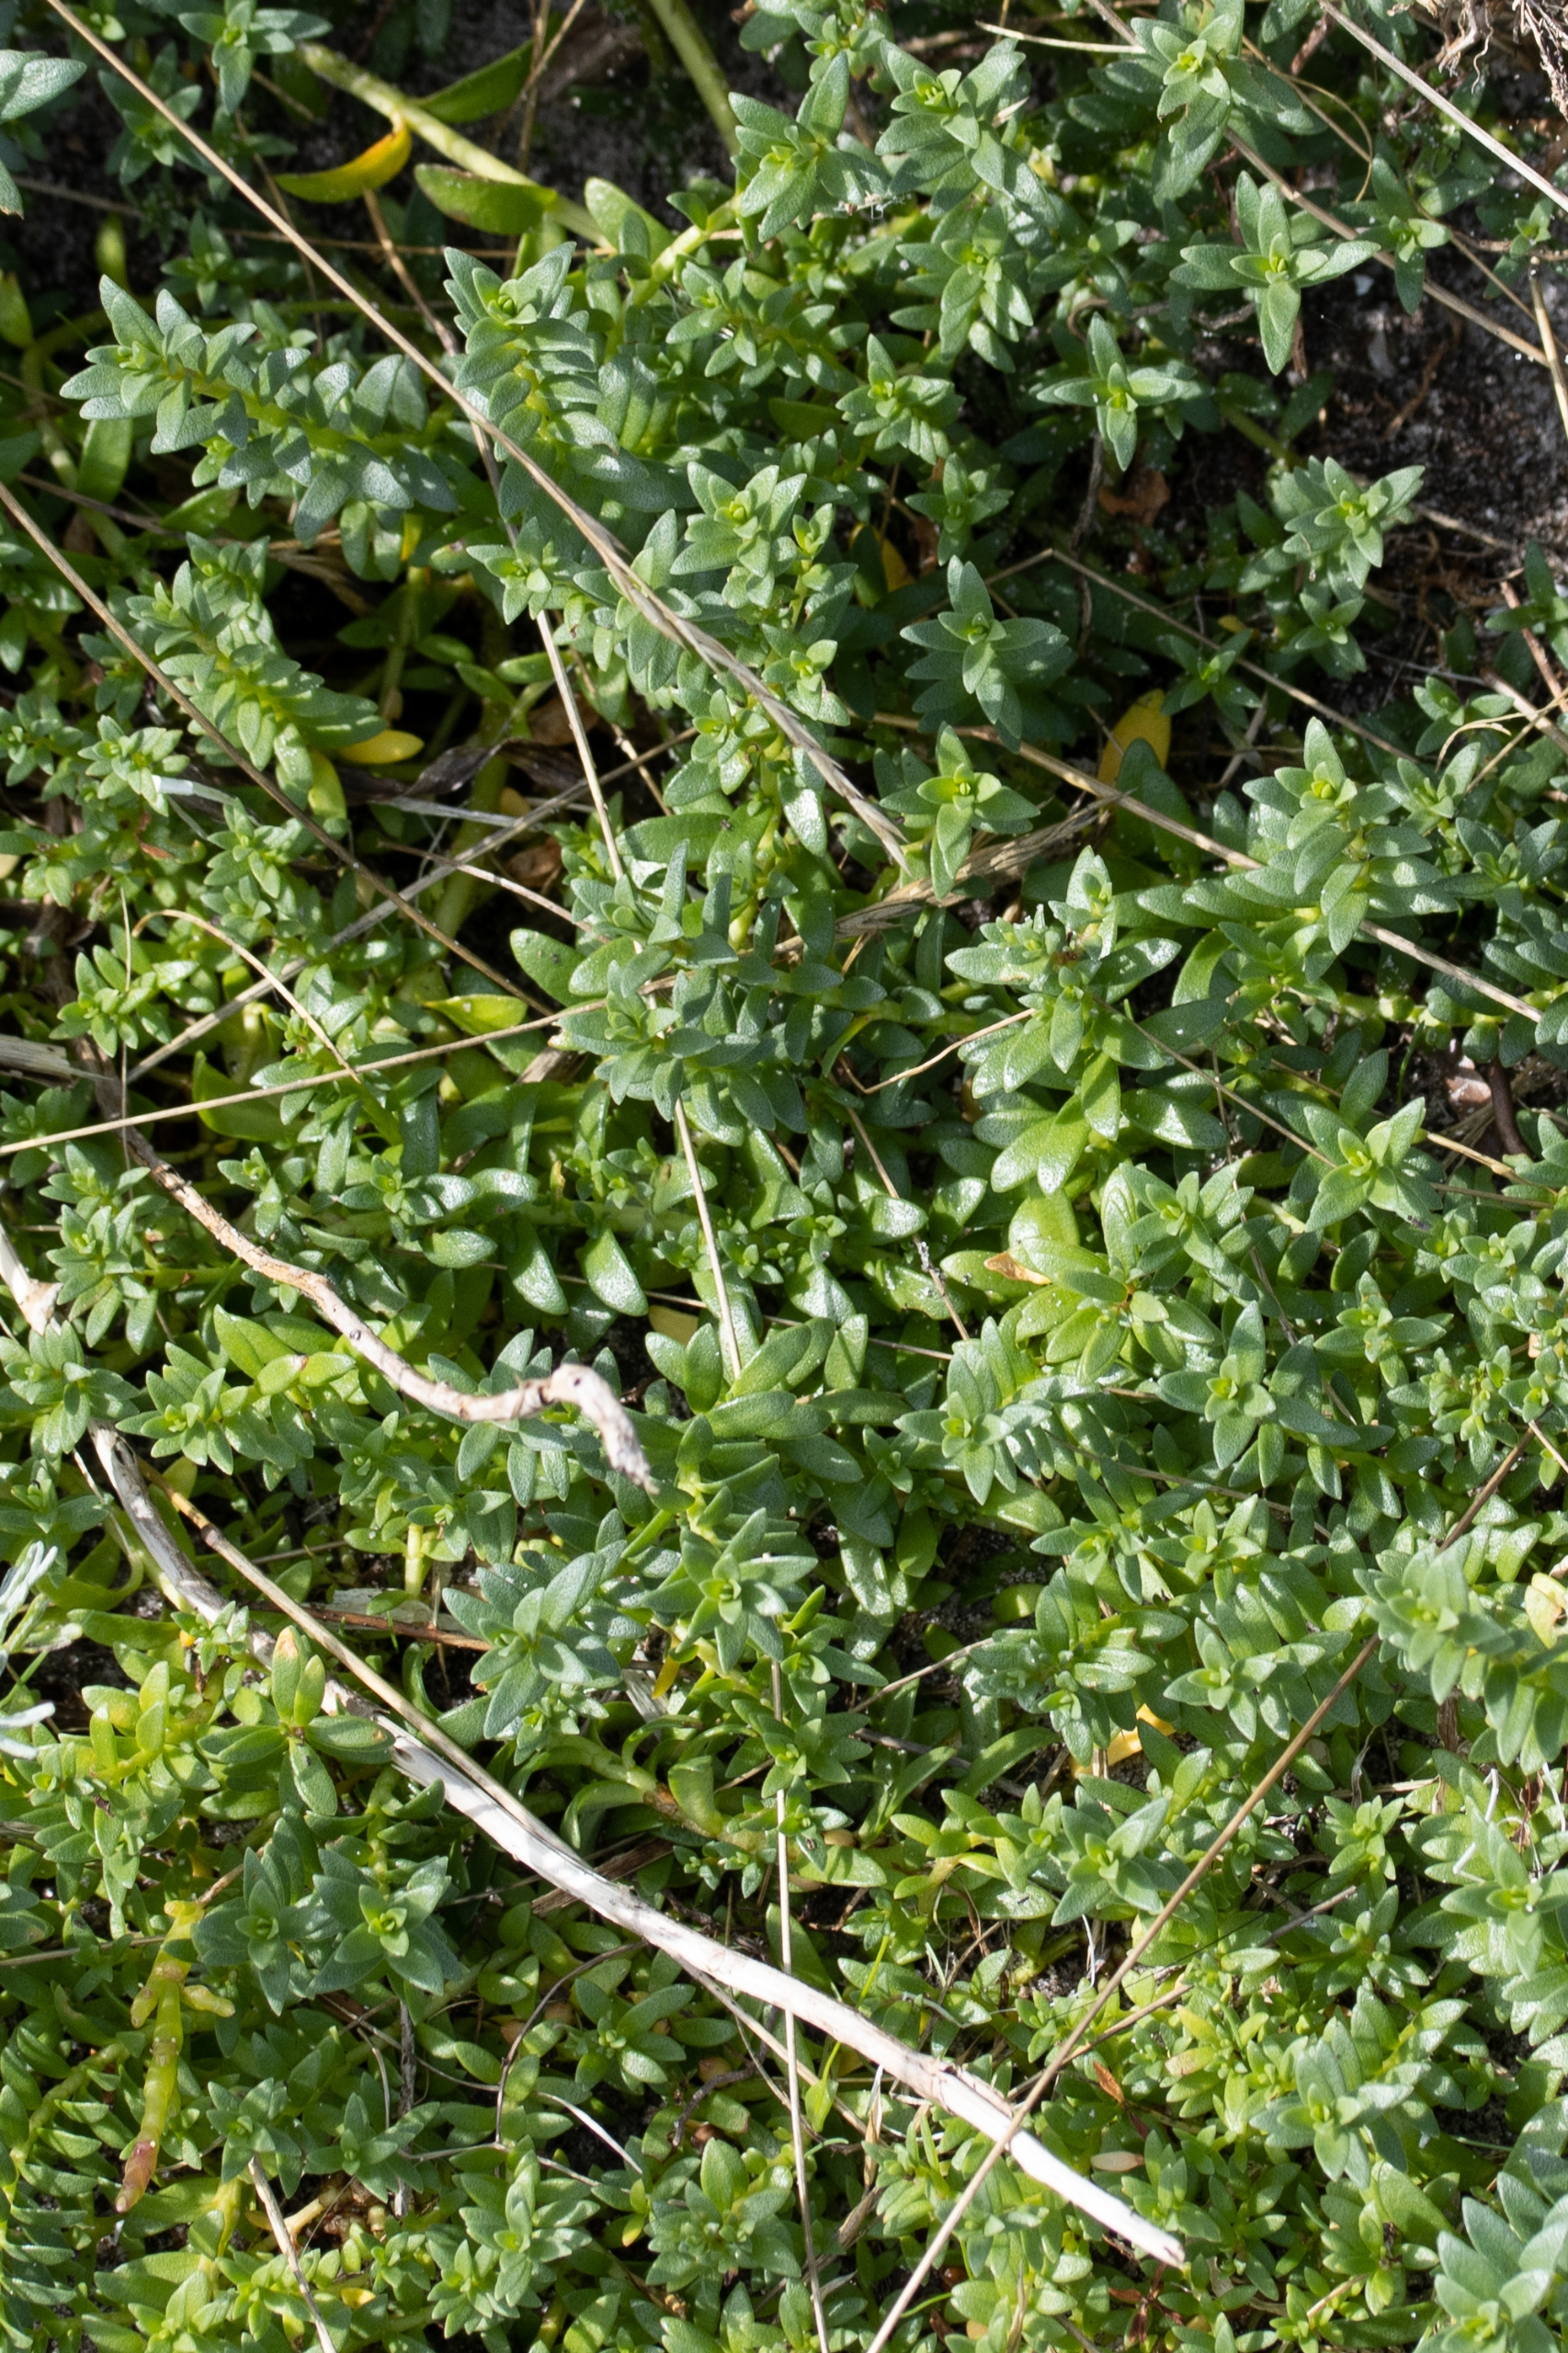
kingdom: Plantae
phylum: Tracheophyta
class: Magnoliopsida
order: Caryophyllales
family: Caryophyllaceae
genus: Honckenya
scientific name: Honckenya peploides
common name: Strandarve
